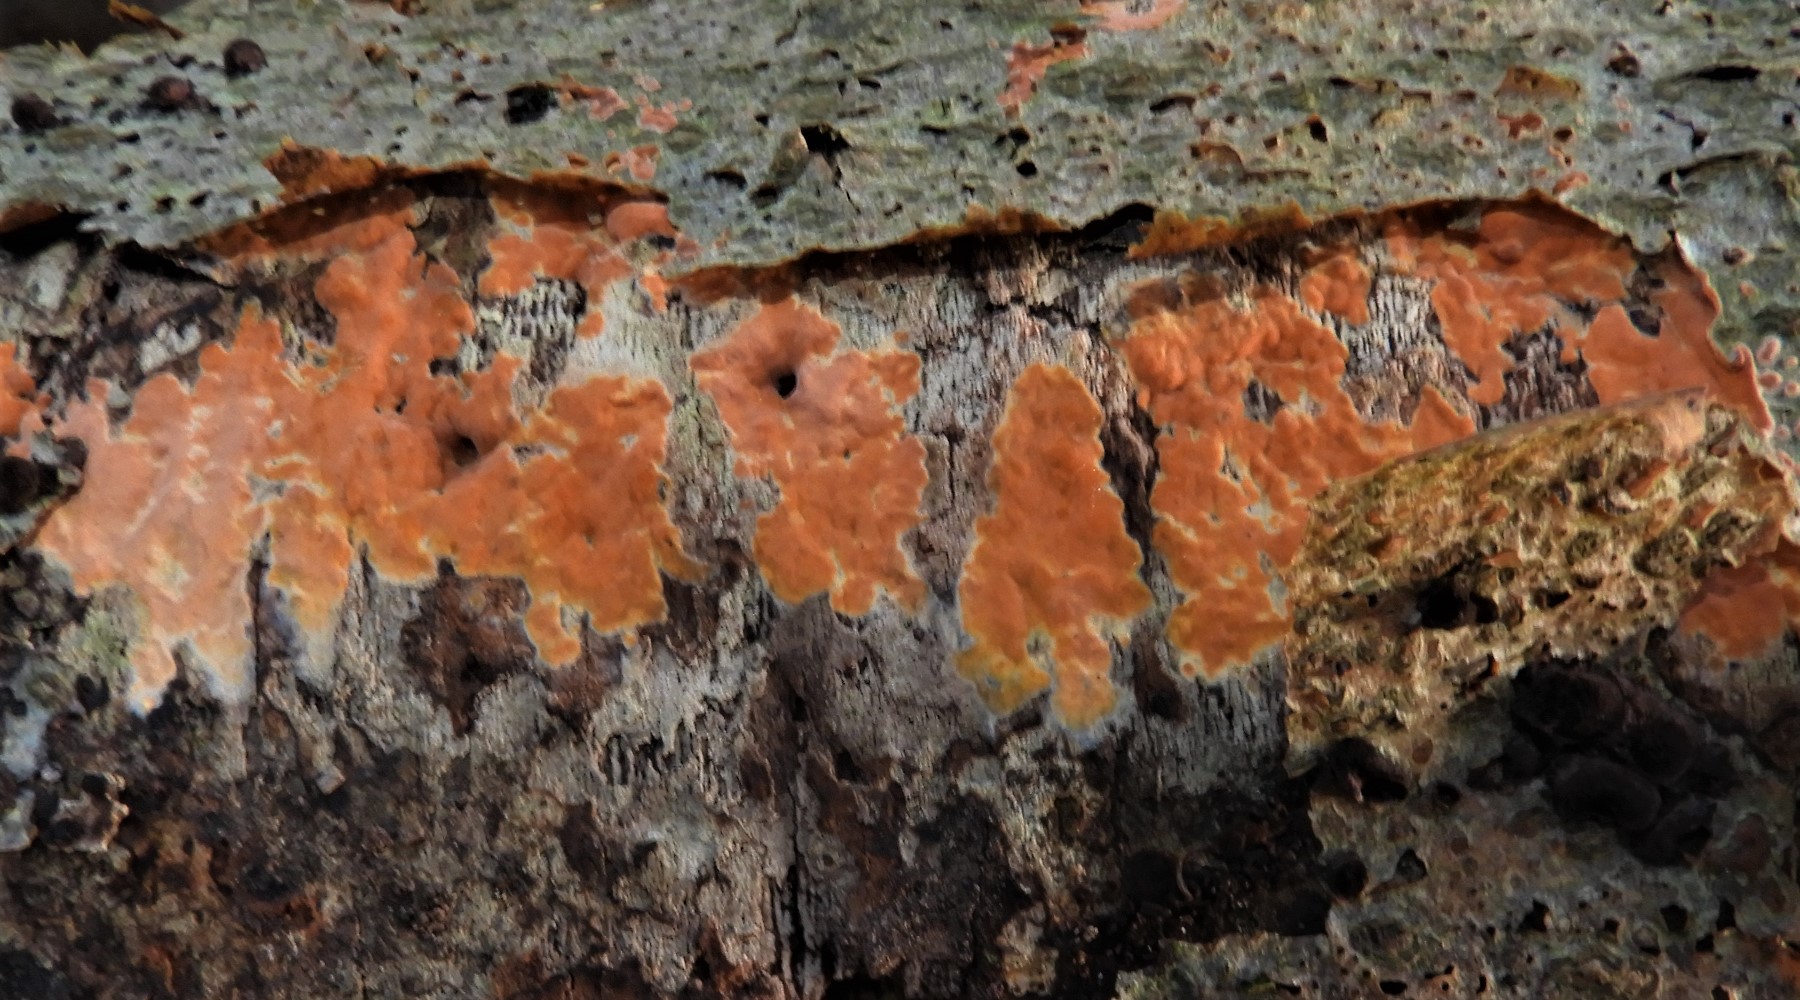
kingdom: Fungi
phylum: Basidiomycota
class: Agaricomycetes
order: Russulales
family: Peniophoraceae
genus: Peniophora
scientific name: Peniophora incarnata
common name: laksefarvet voksskind
